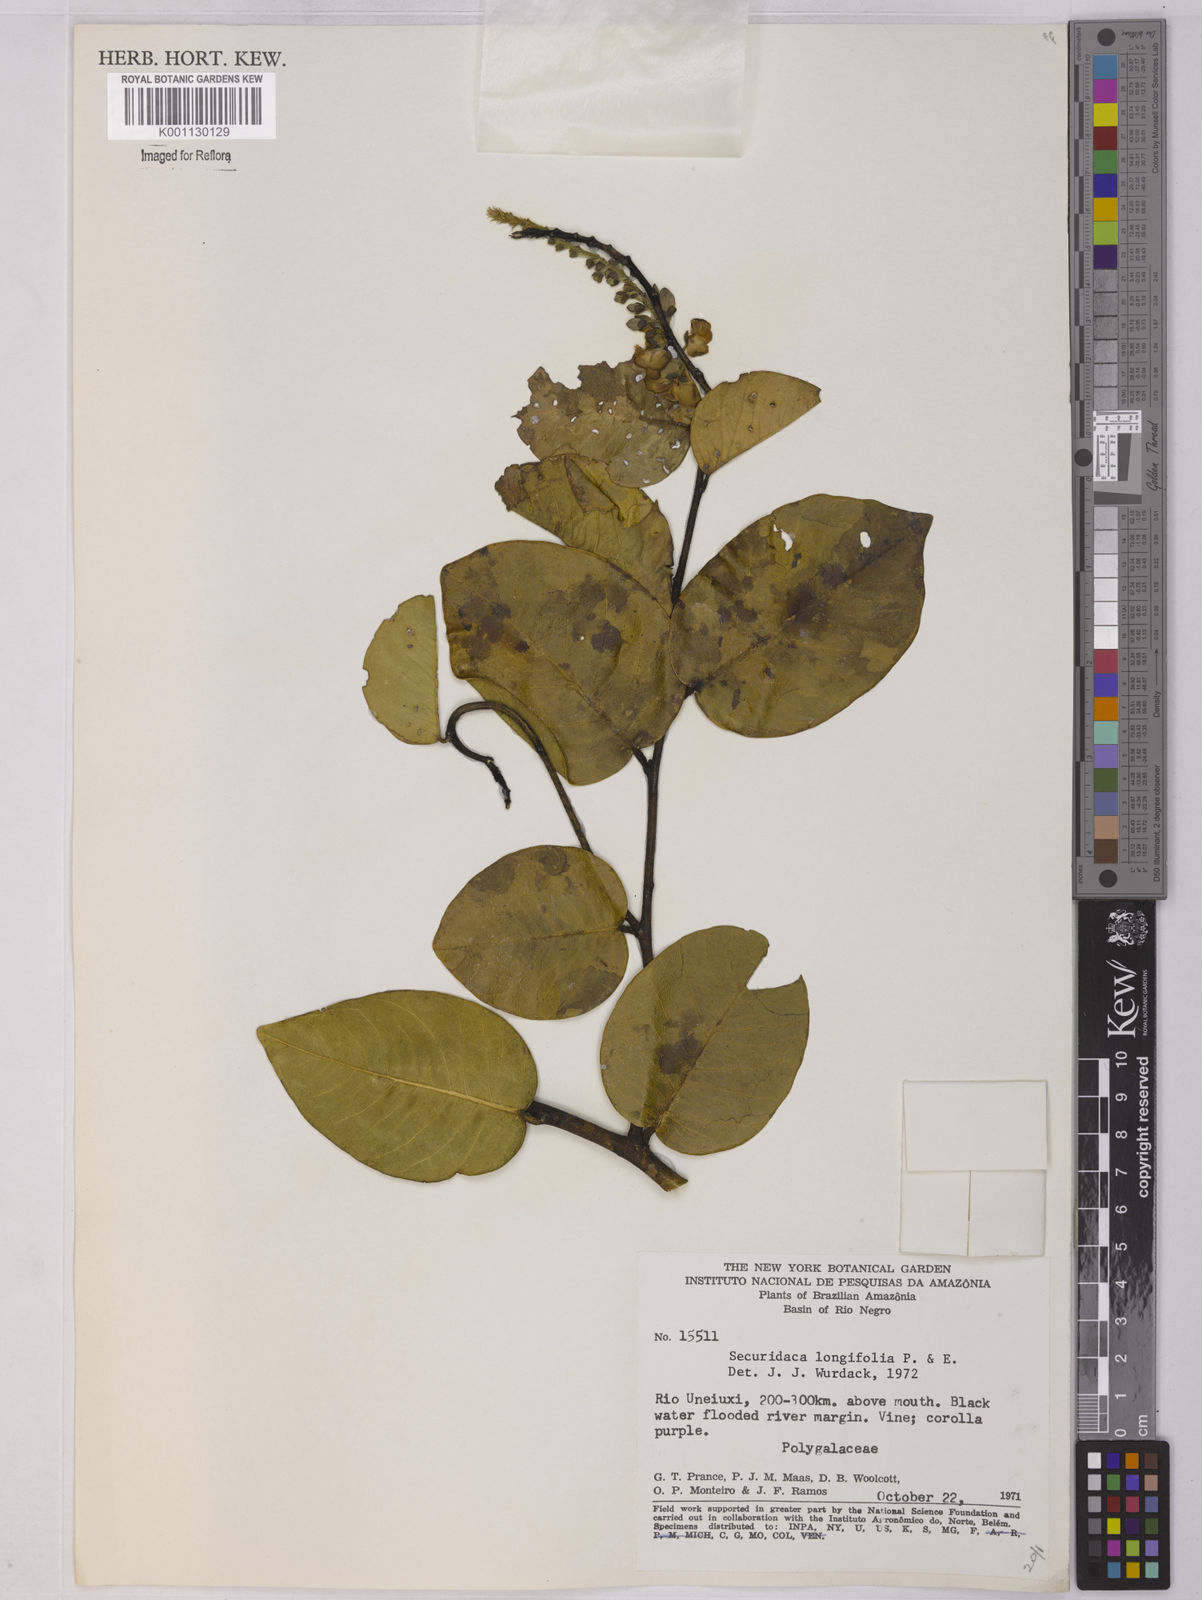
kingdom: Plantae
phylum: Tracheophyta
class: Magnoliopsida
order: Fabales
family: Polygalaceae
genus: Securidaca
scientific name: Securidaca longifolia
